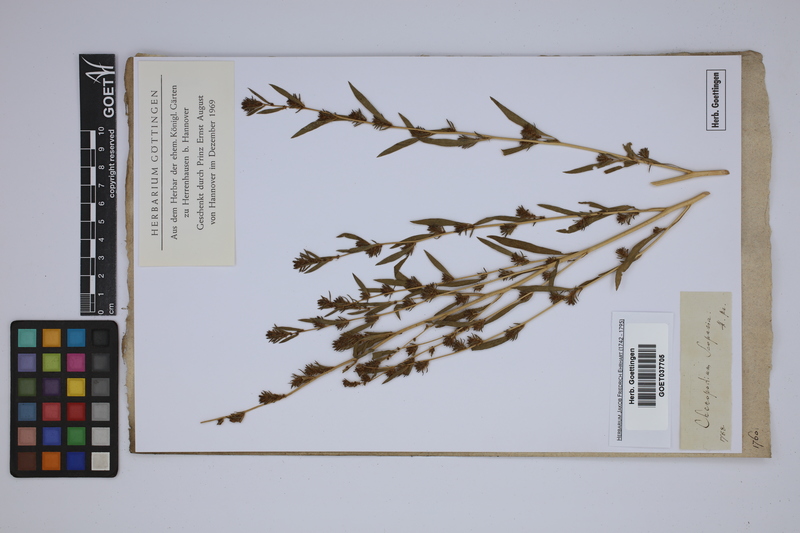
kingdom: Plantae
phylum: Tracheophyta
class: Magnoliopsida
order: Caryophyllales
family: Amaranthaceae
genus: Bassia
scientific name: Bassia scoparia
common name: Belvedere
